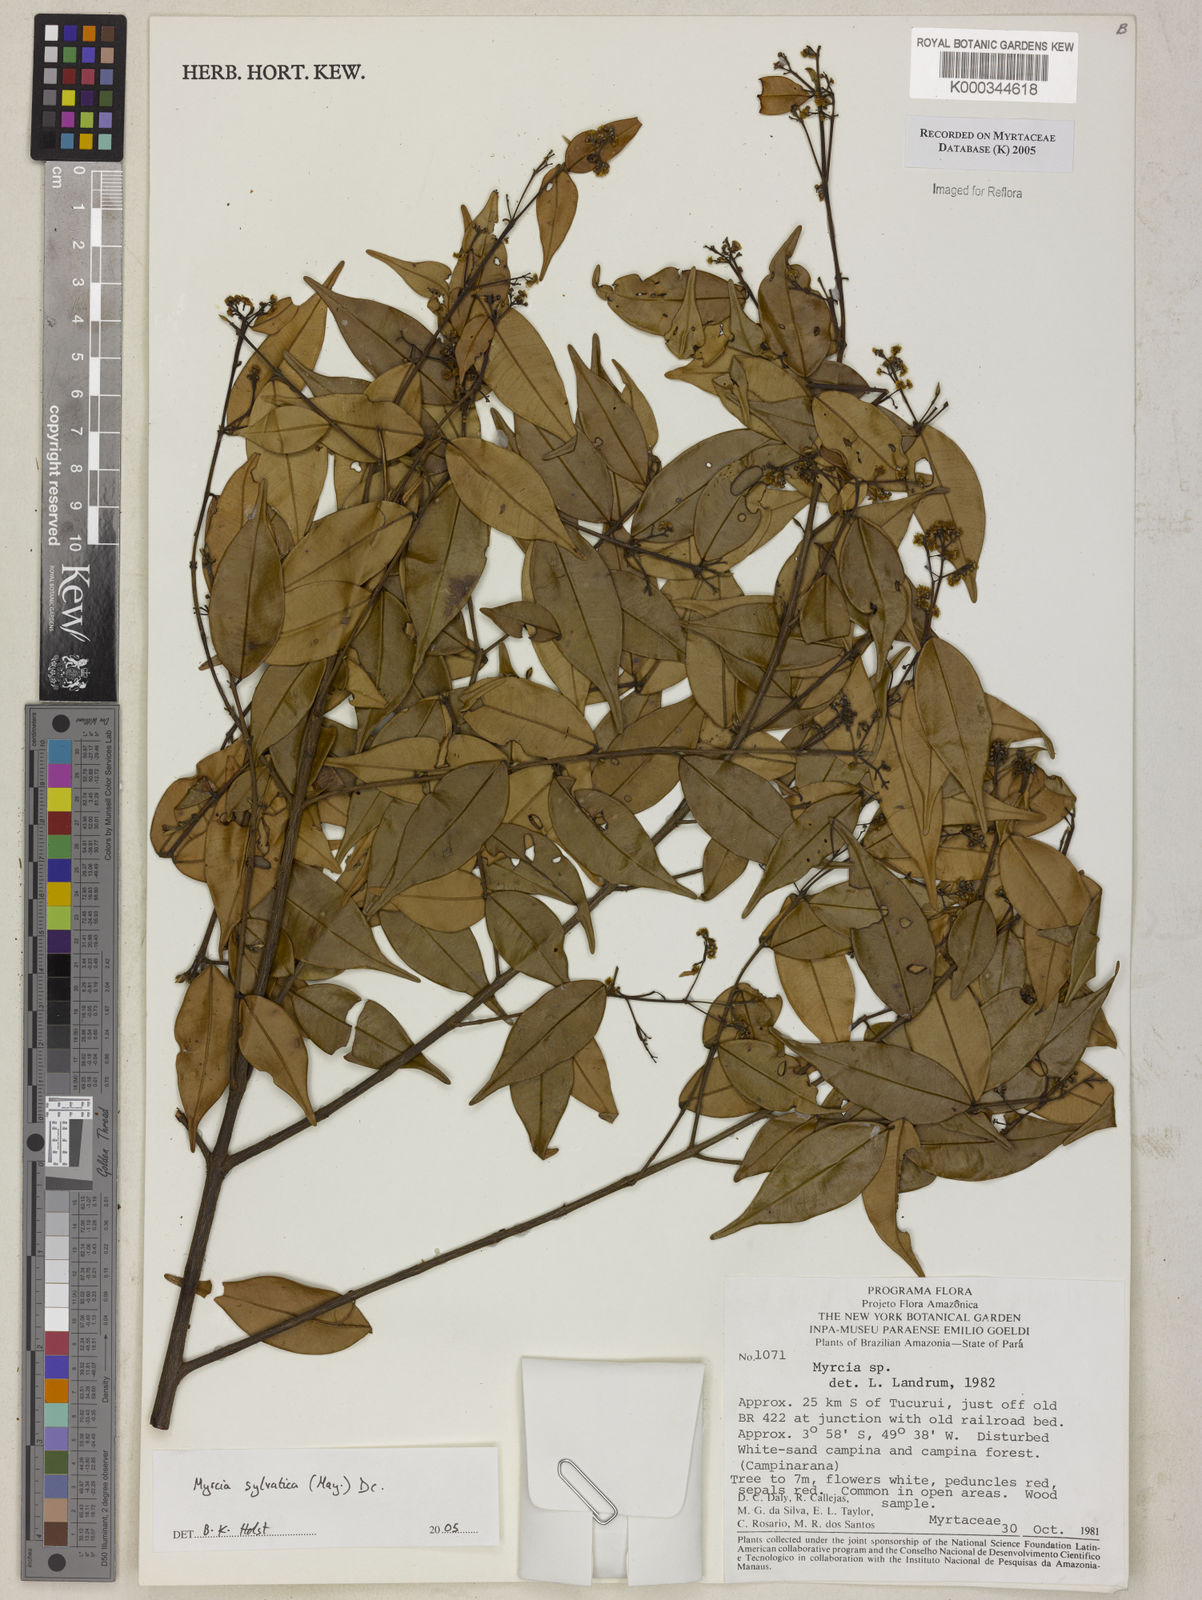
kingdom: Plantae
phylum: Tracheophyta
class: Magnoliopsida
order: Myrtales
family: Myrtaceae
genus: Myrcia
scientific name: Myrcia sylvatica
